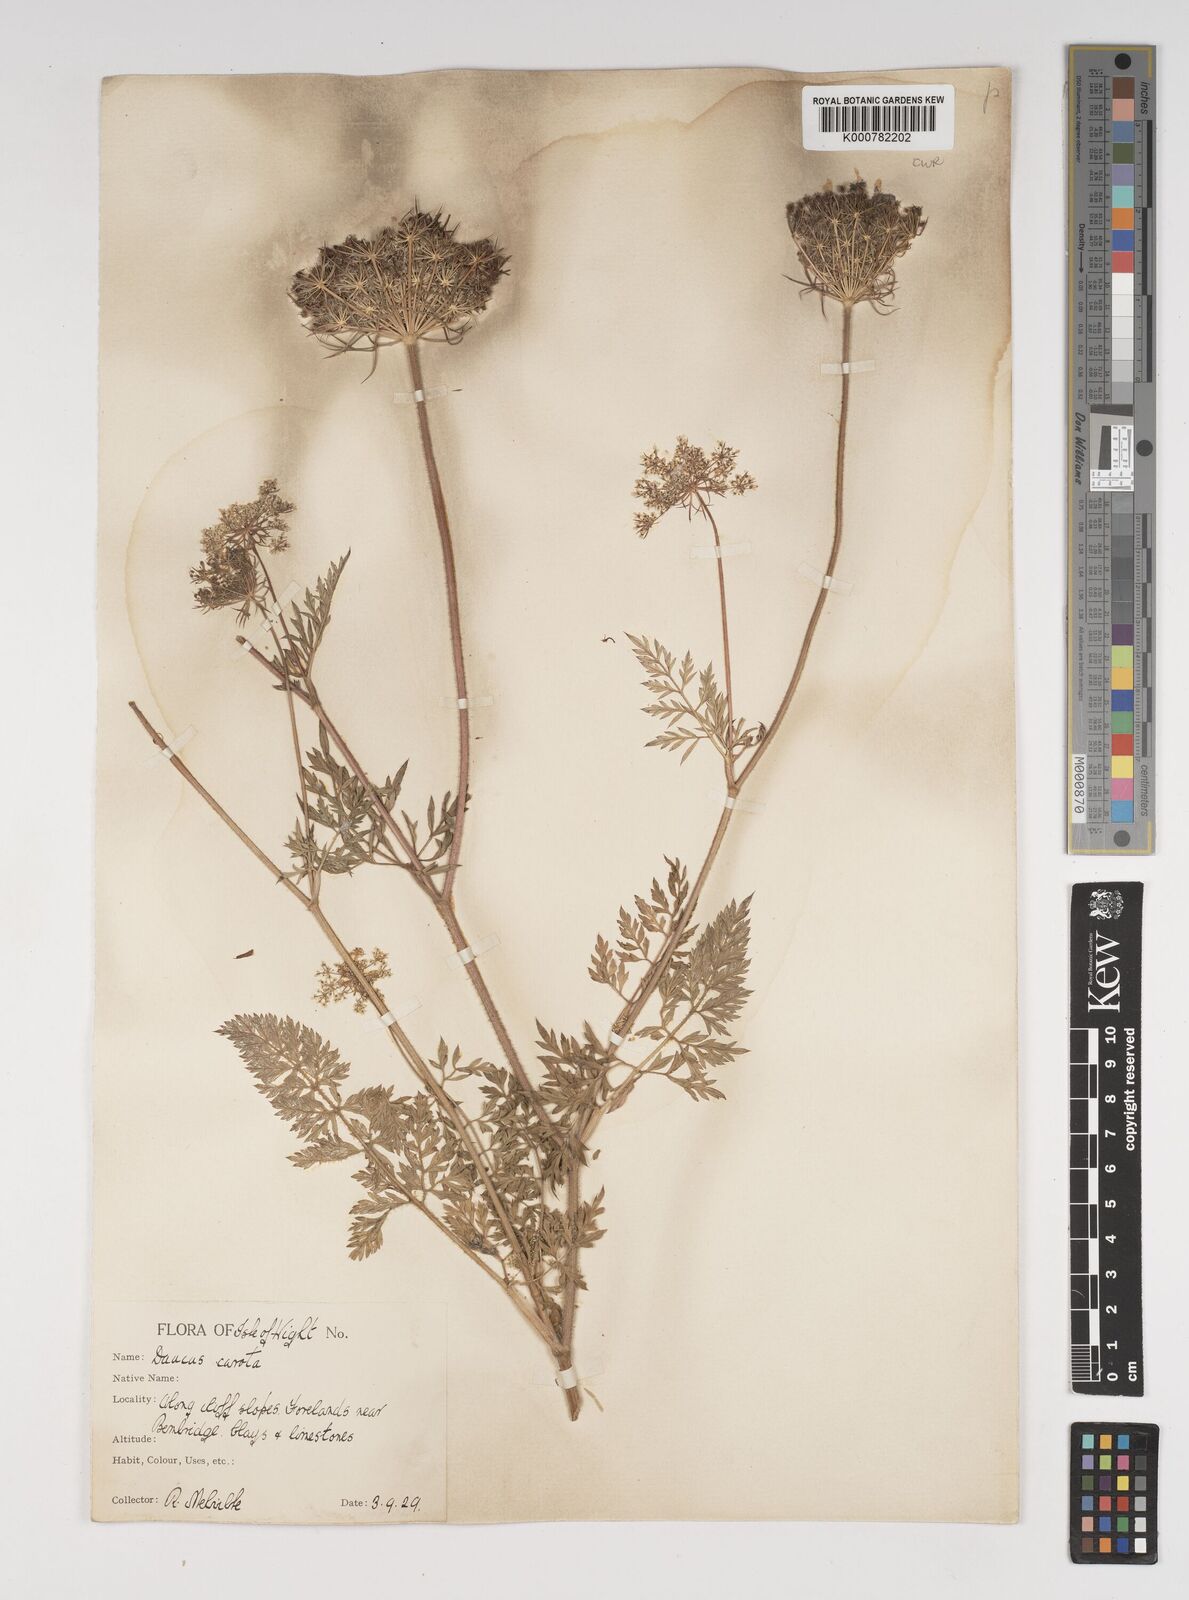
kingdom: Plantae
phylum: Tracheophyta
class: Magnoliopsida
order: Apiales
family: Apiaceae
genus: Daucus
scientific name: Daucus carota
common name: Wild carrot
